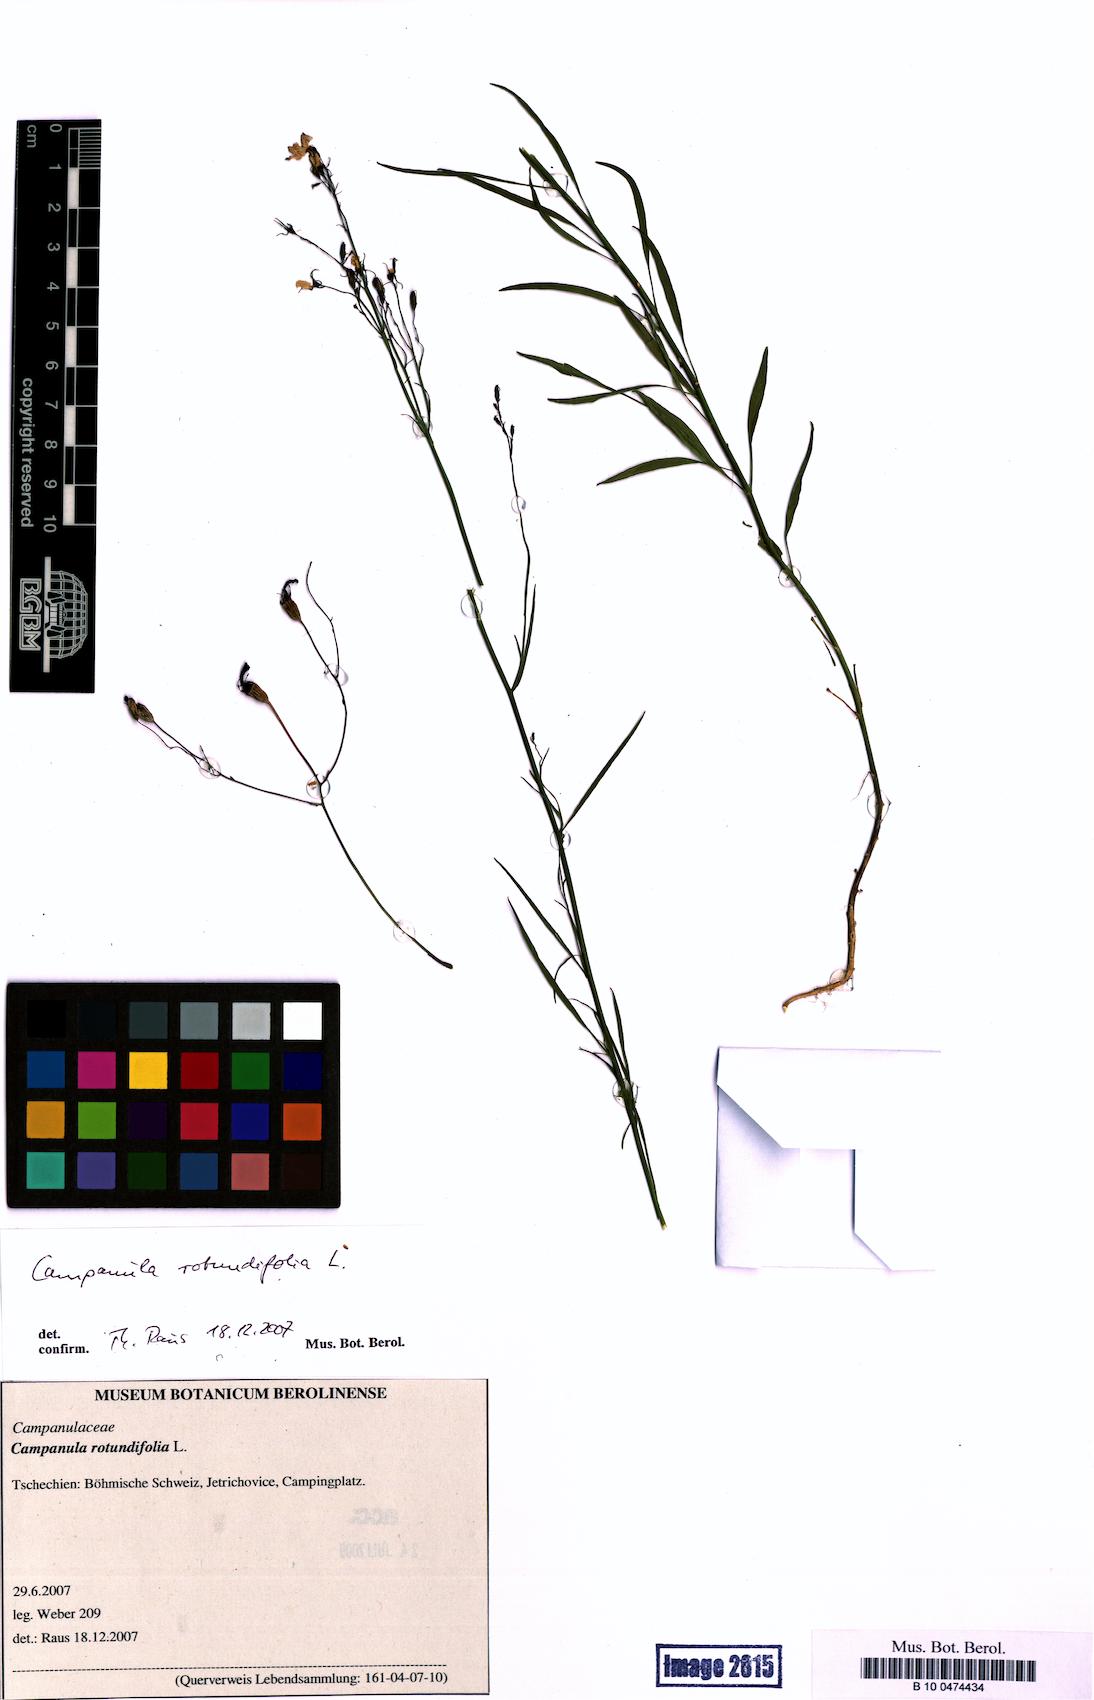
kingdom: Plantae
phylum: Tracheophyta
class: Magnoliopsida
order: Asterales
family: Campanulaceae
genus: Campanula
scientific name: Campanula rotundifolia
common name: Harebell
